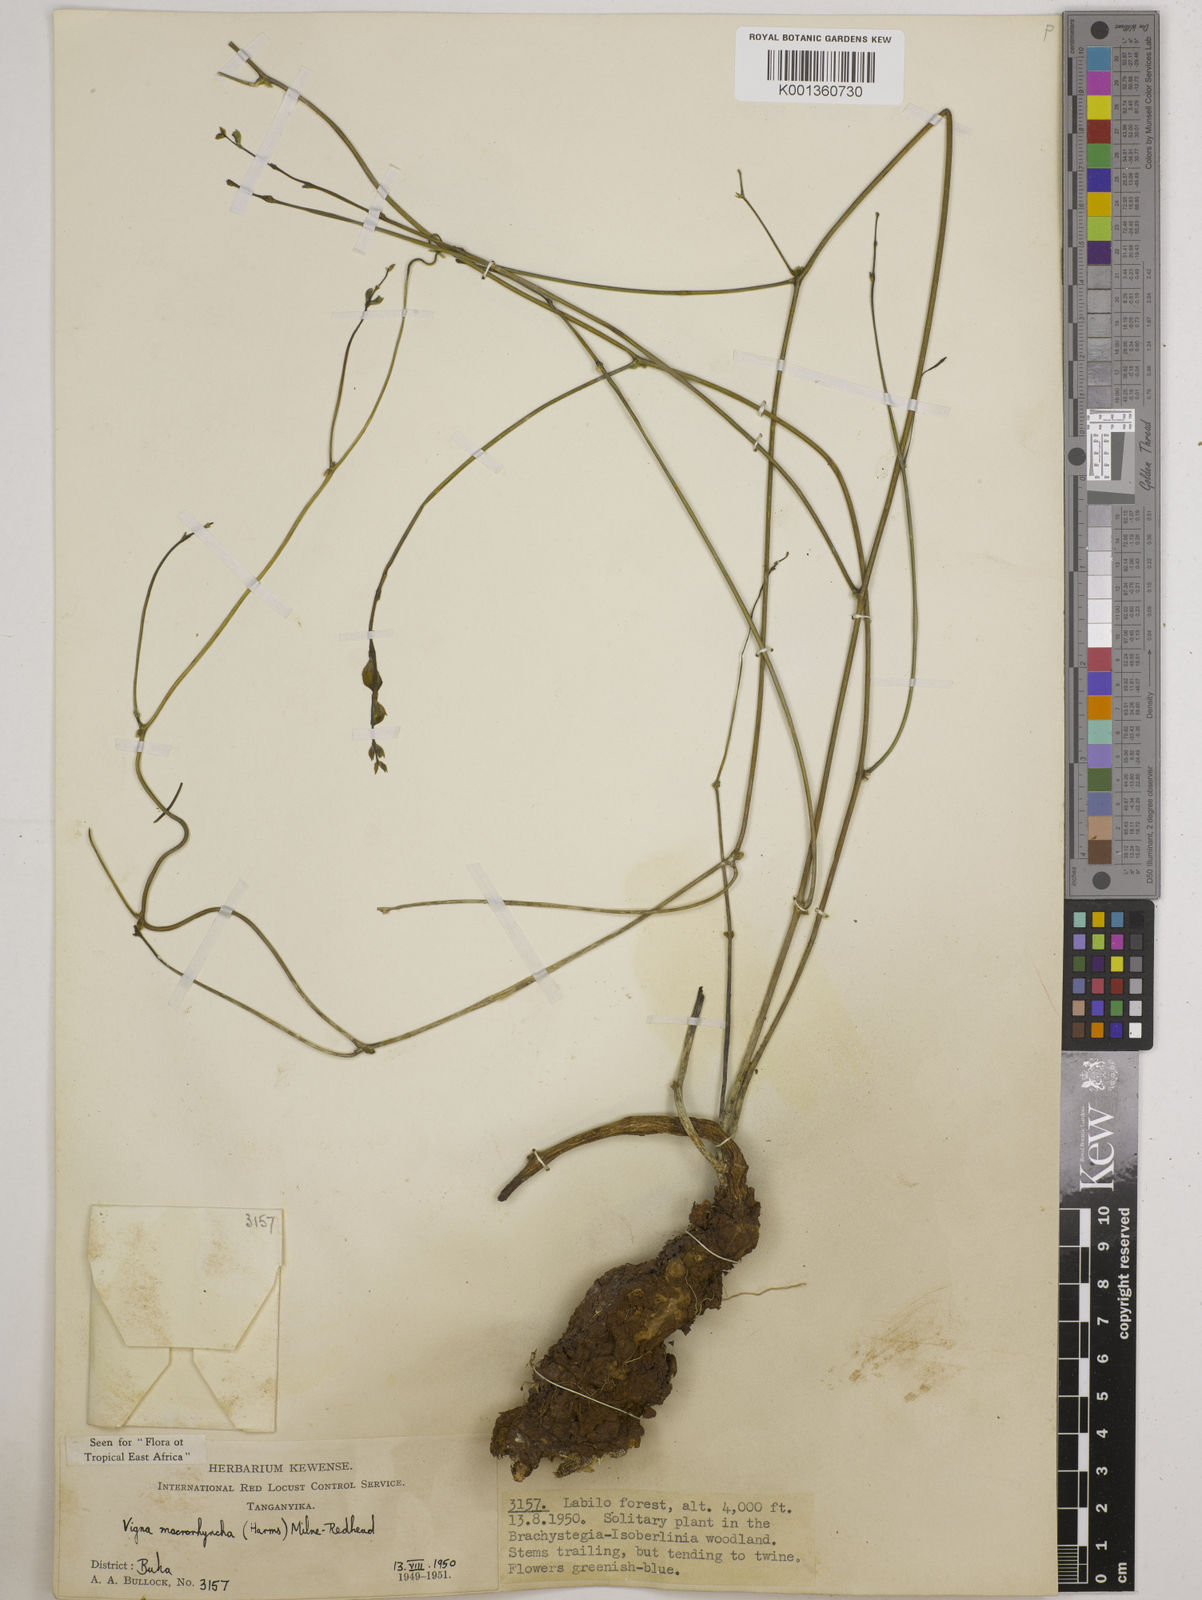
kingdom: Plantae
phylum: Tracheophyta
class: Magnoliopsida
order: Fabales
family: Fabaceae
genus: Wajira
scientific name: Wajira grahamiana
